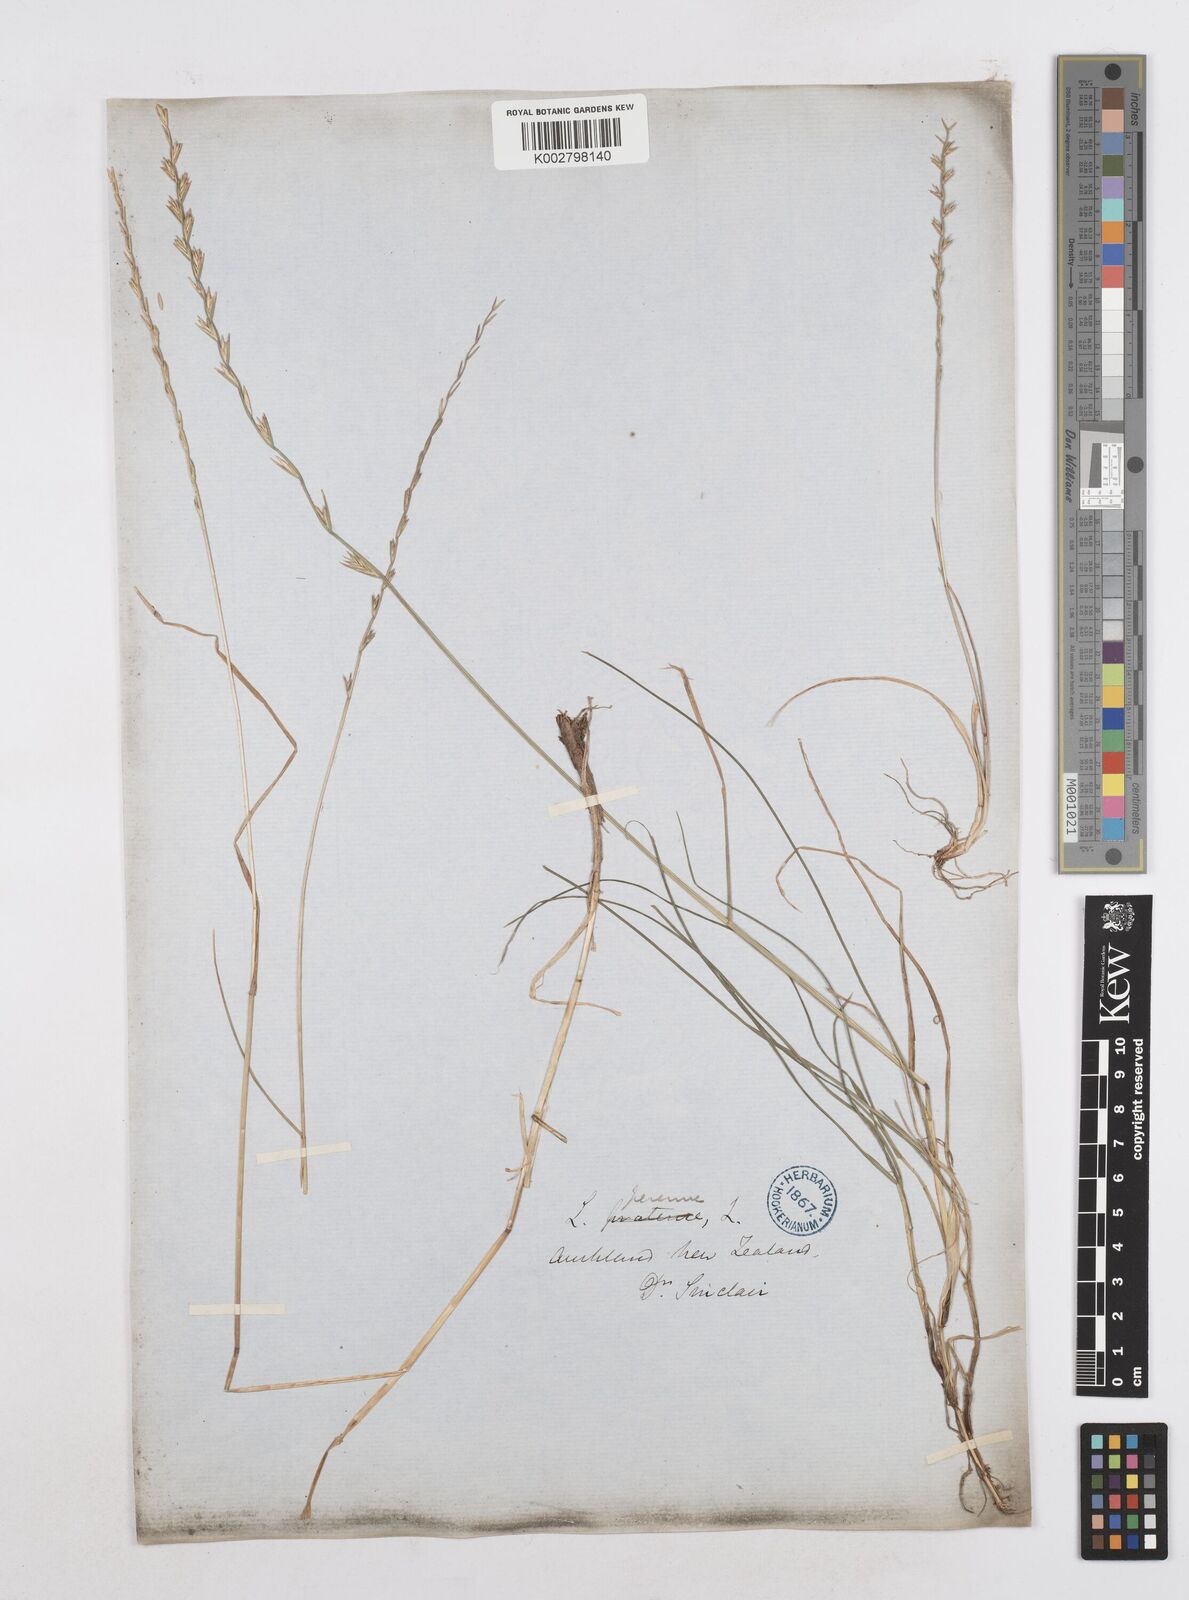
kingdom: Plantae
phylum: Tracheophyta
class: Liliopsida
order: Poales
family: Poaceae
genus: Lolium
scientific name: Lolium perenne
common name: Perennial ryegrass
